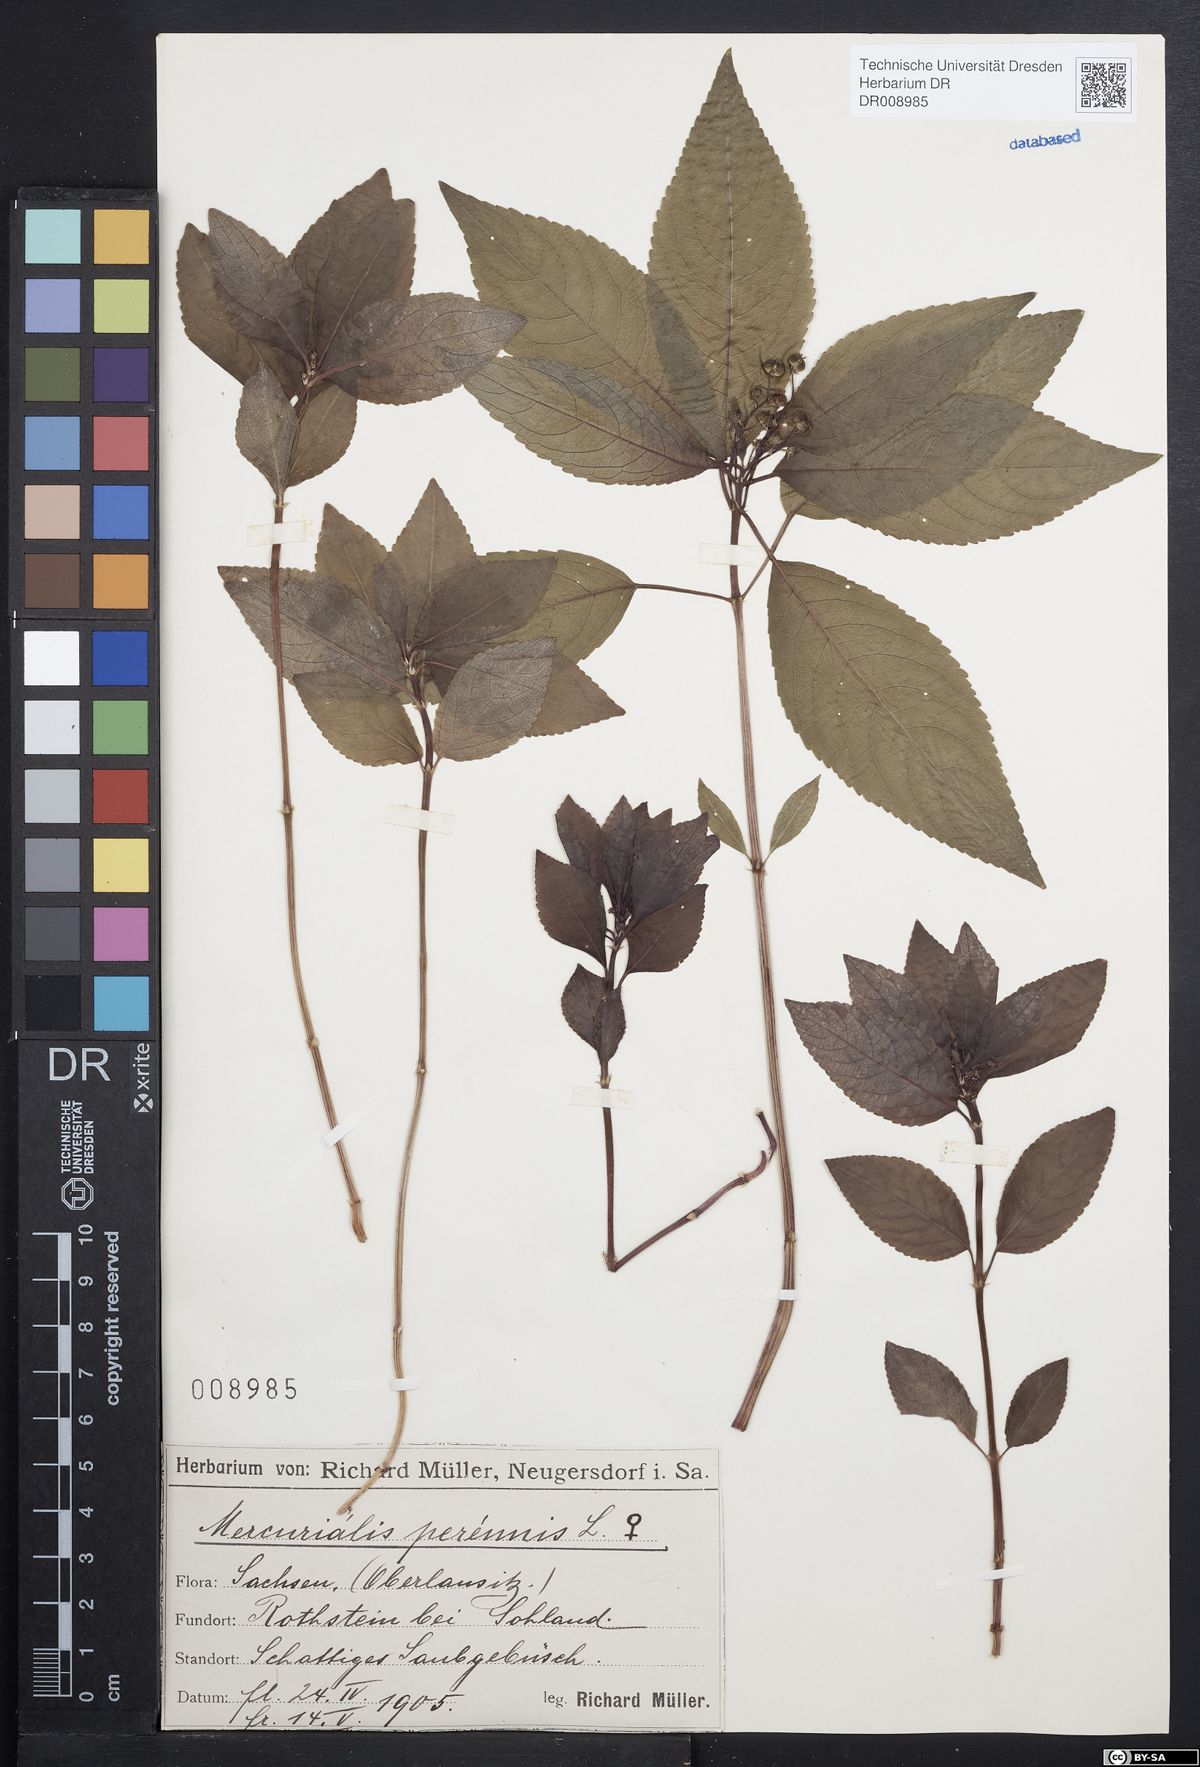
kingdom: Plantae
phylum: Tracheophyta
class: Magnoliopsida
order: Malpighiales
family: Euphorbiaceae
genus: Mercurialis
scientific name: Mercurialis perennis
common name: Dog mercury
